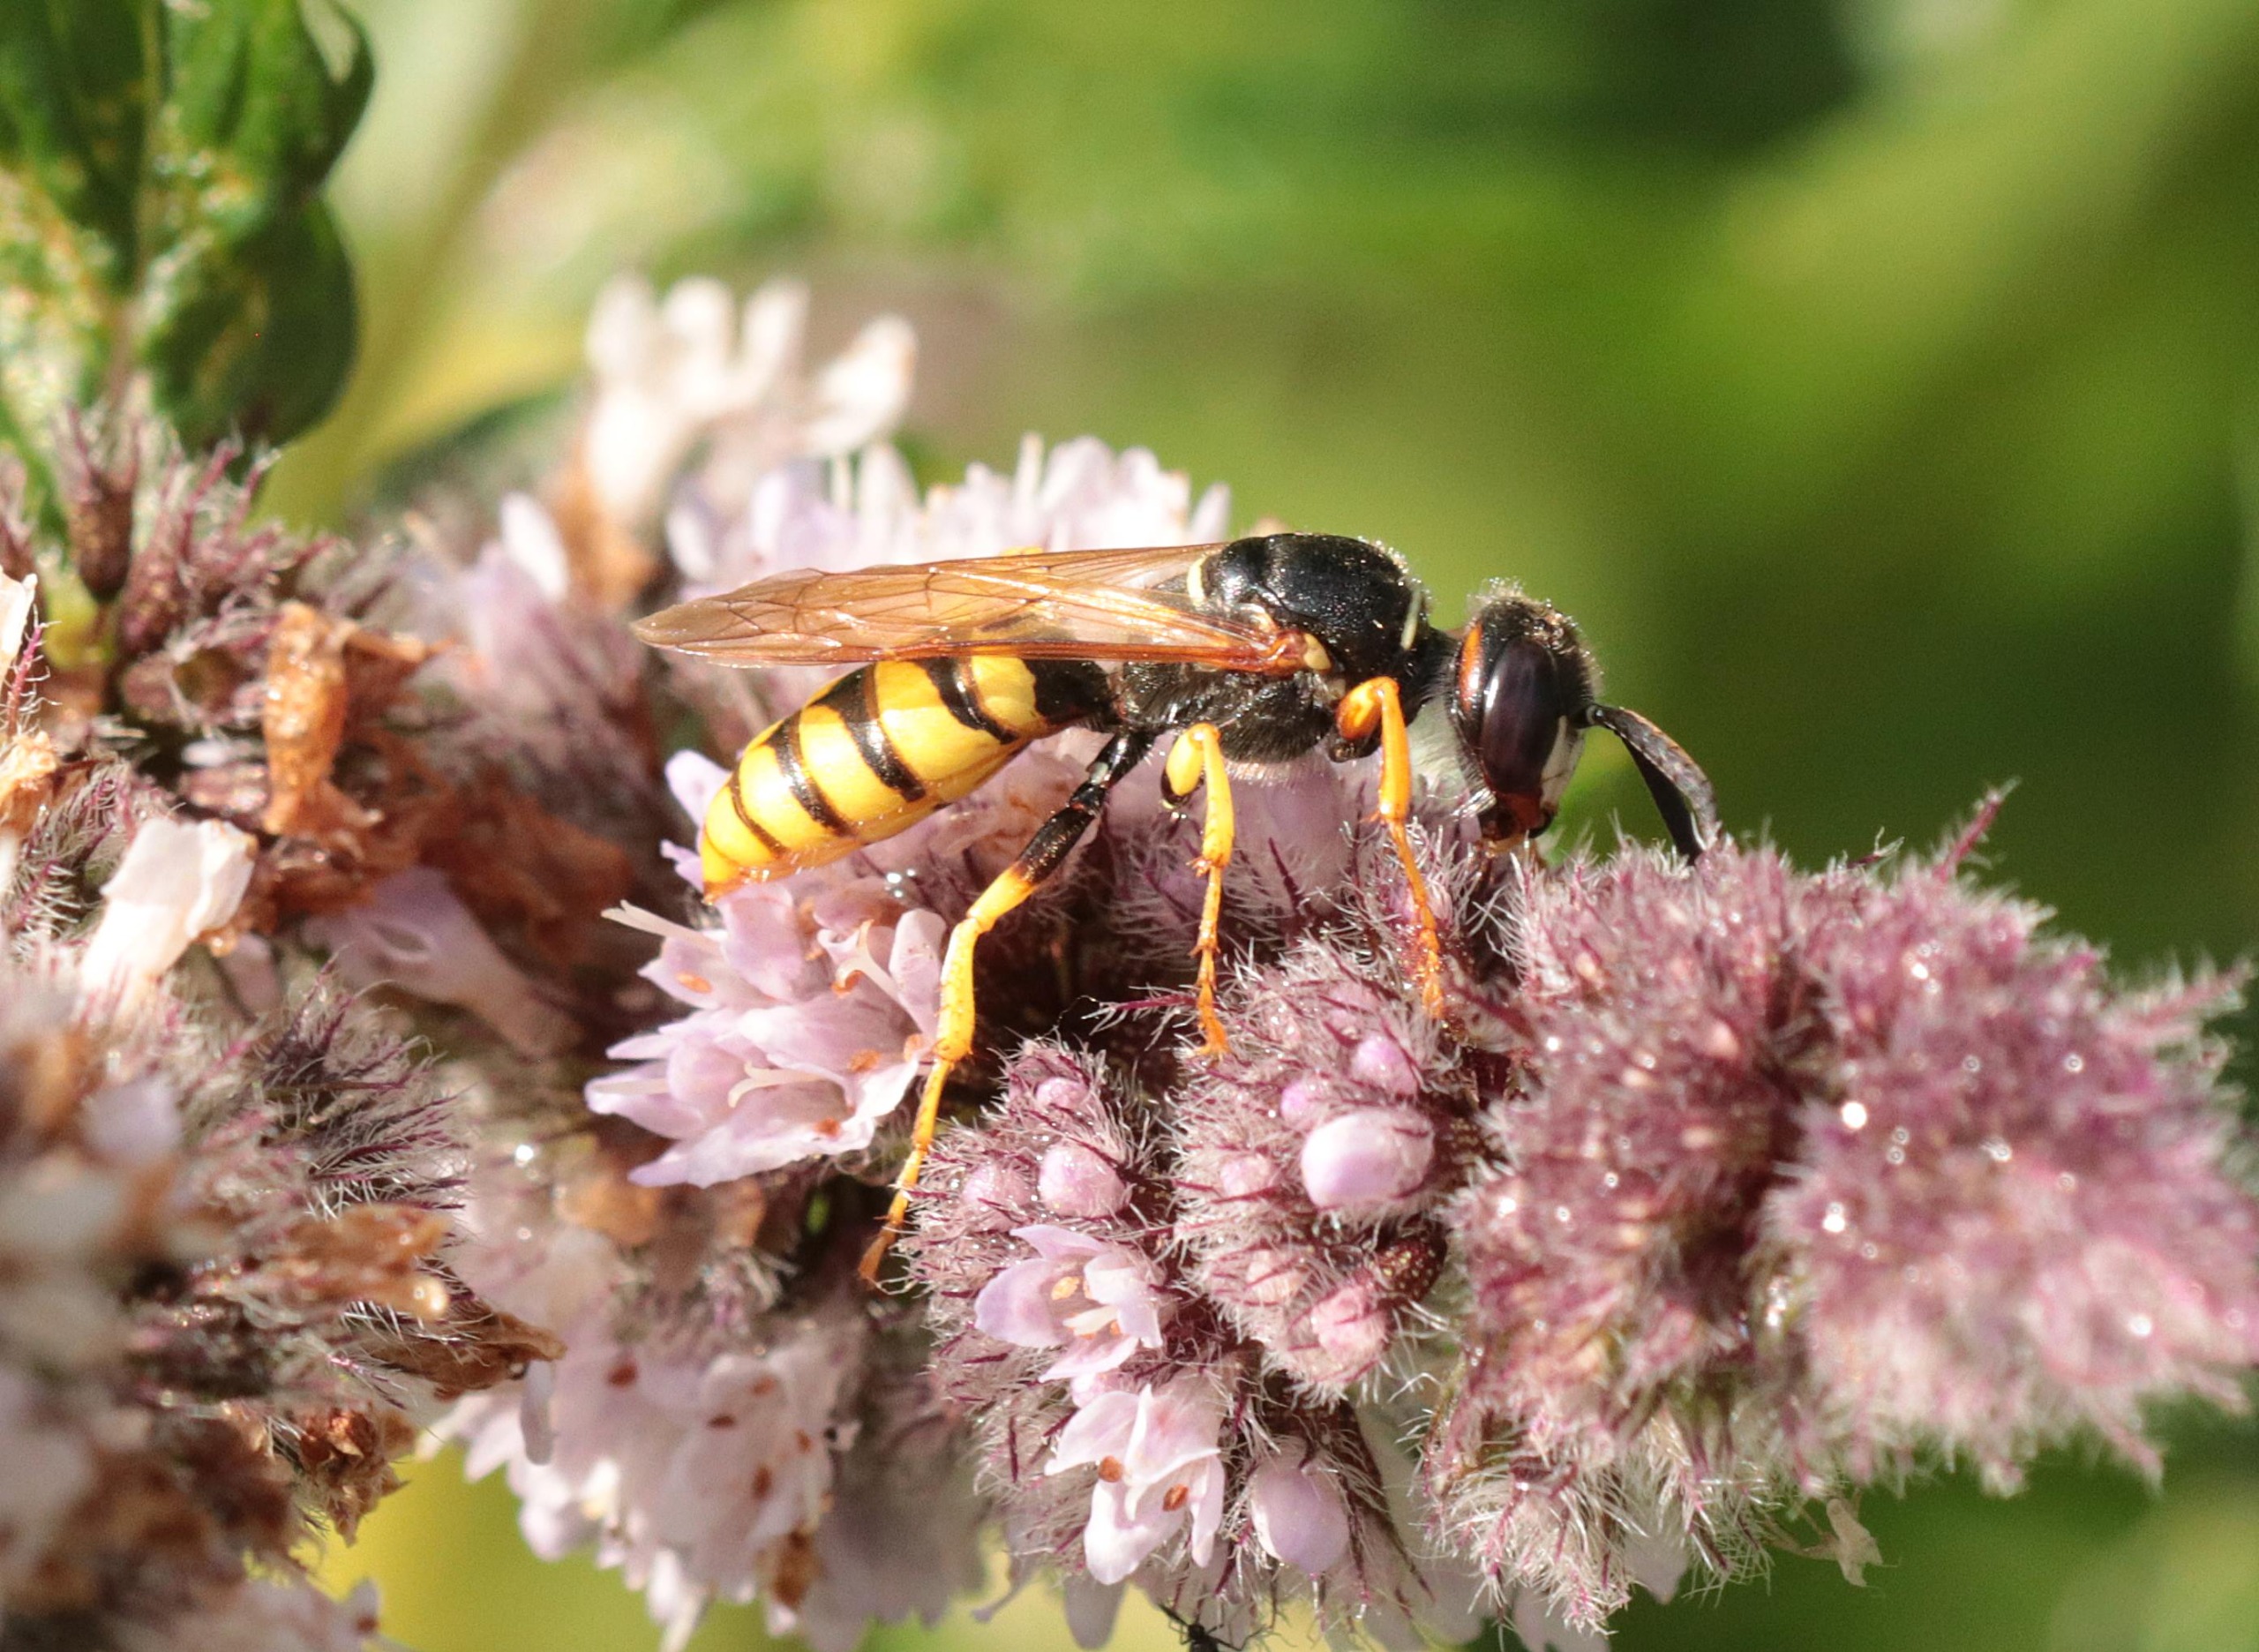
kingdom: Animalia
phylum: Arthropoda
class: Insecta
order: Hymenoptera
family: Crabronidae
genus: Philanthus
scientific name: Philanthus triangulum
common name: Biulv
